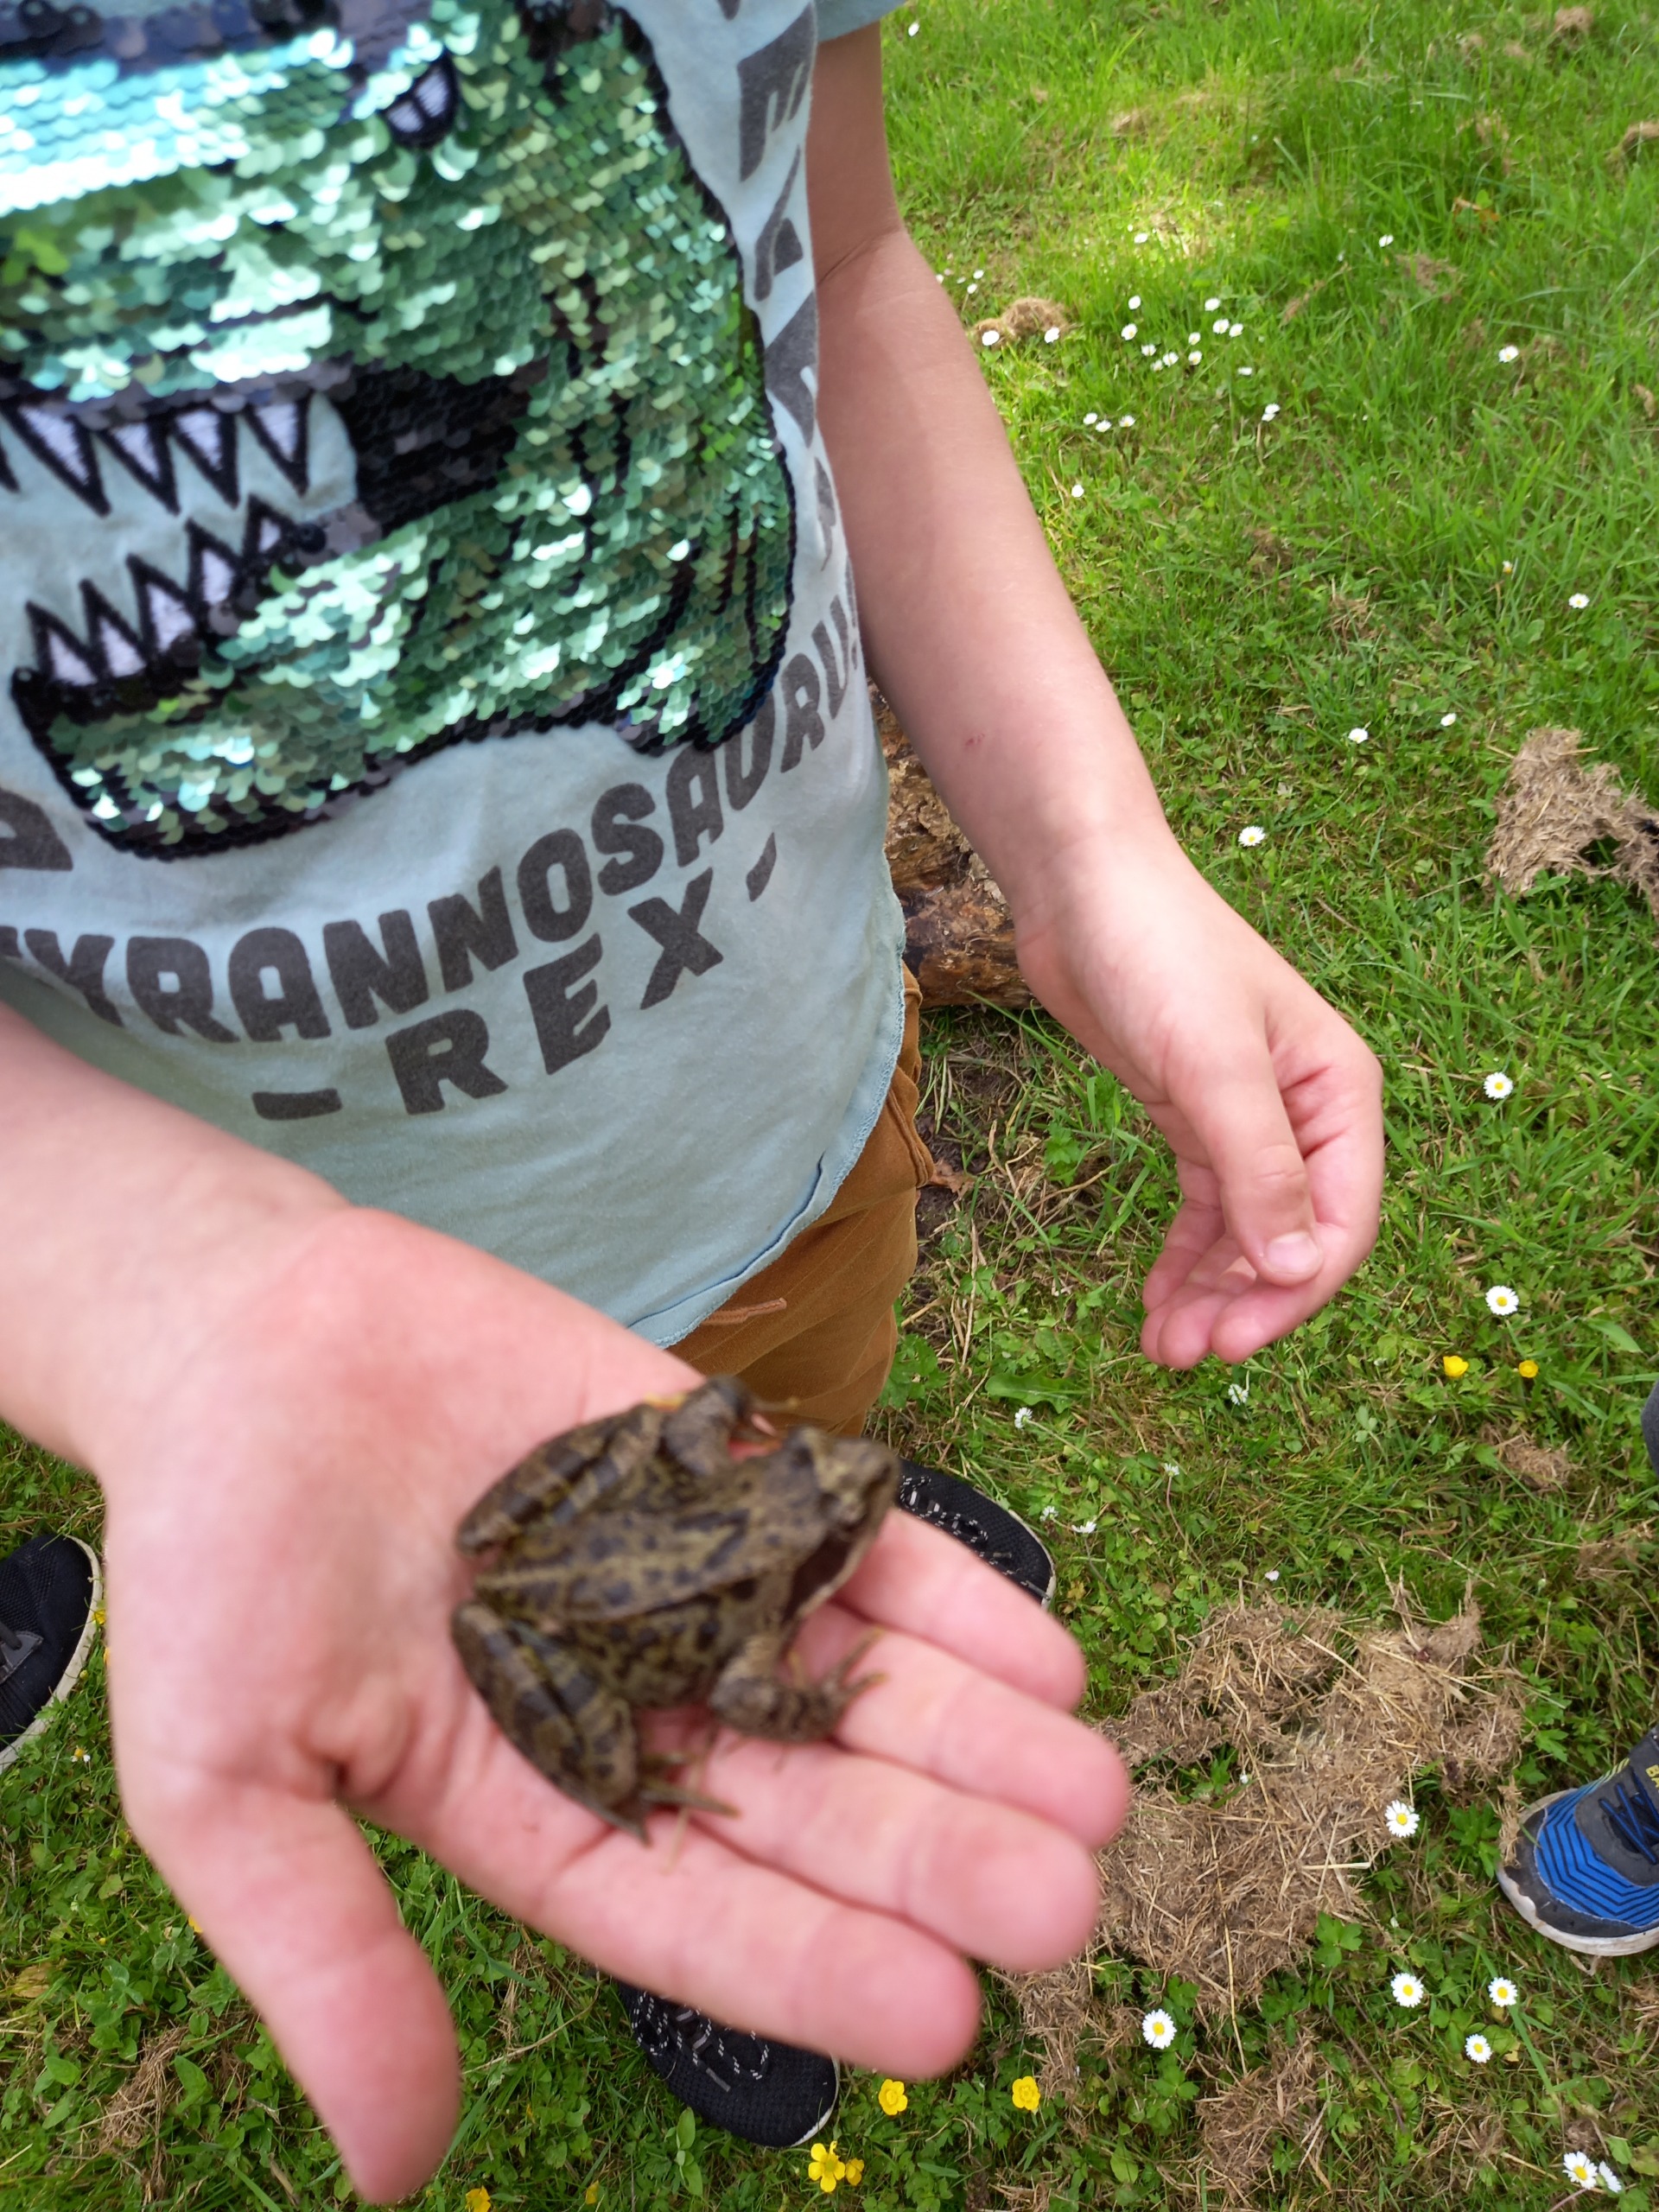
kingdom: Animalia
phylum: Chordata
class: Amphibia
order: Anura
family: Ranidae
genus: Rana
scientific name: Rana temporaria
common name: Butsnudet frø
